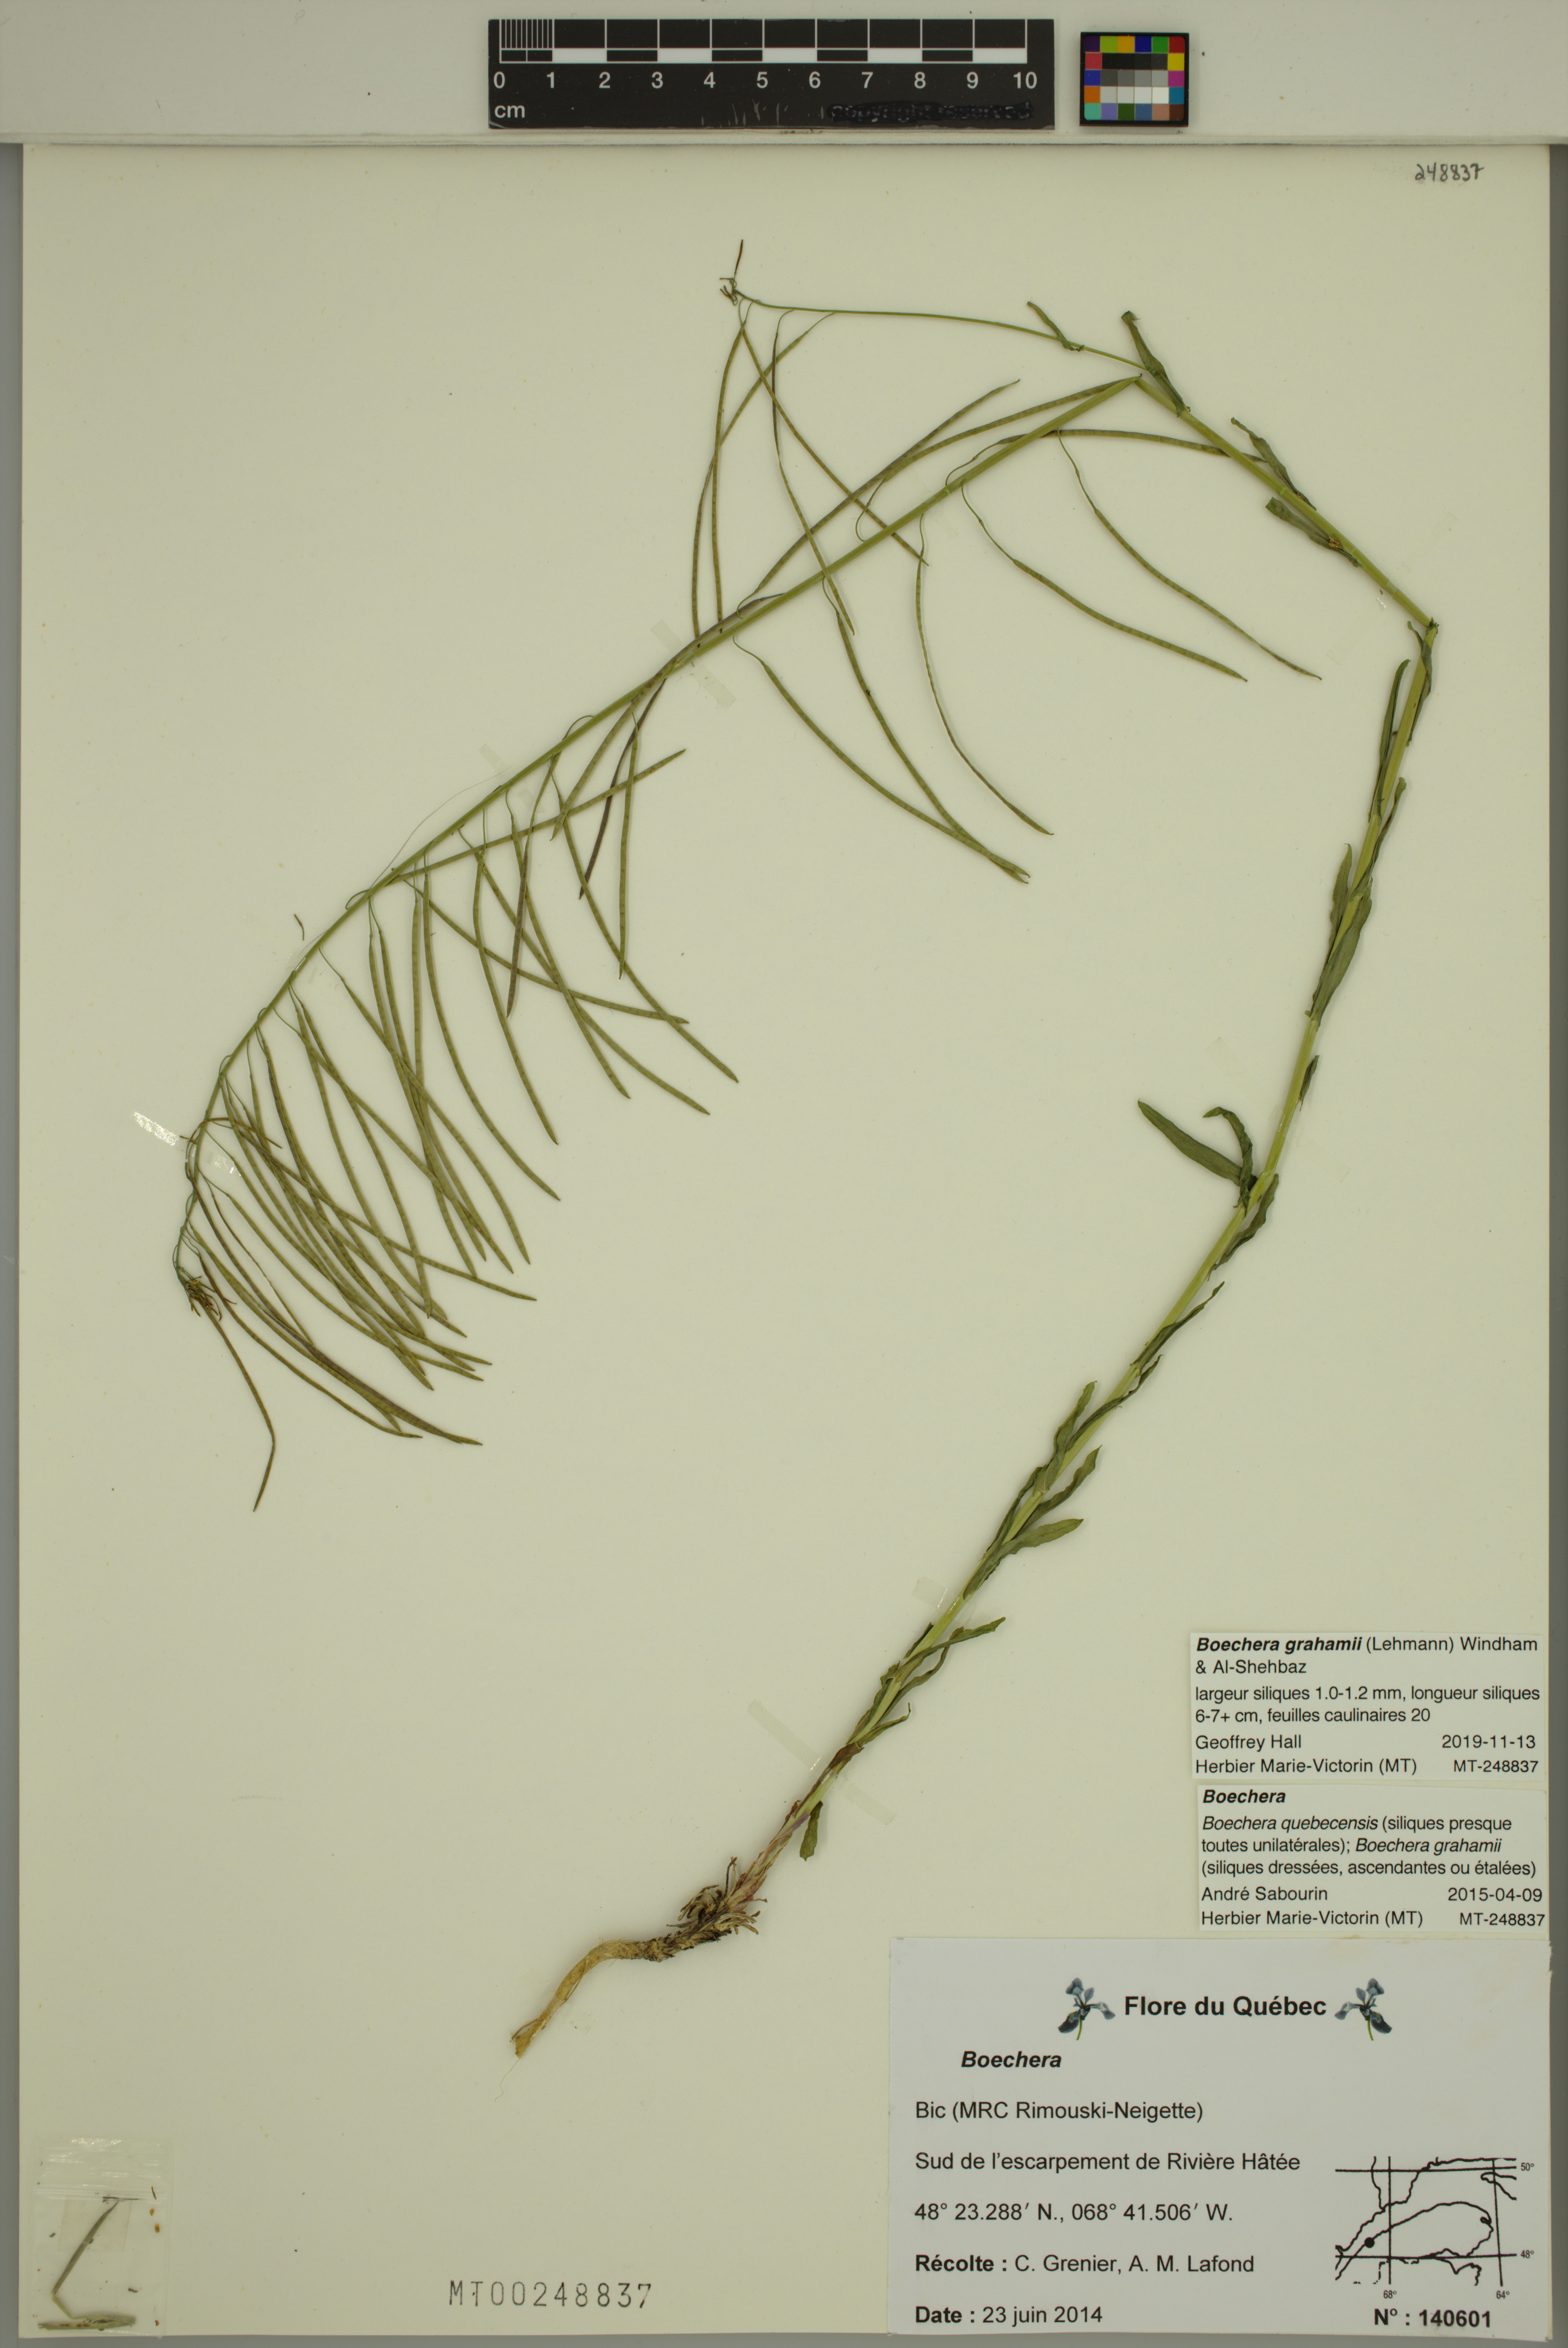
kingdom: Plantae
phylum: Tracheophyta
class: Magnoliopsida
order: Brassicales
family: Brassicaceae
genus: Boechera
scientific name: Boechera grahamii
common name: Graham's rockcress
